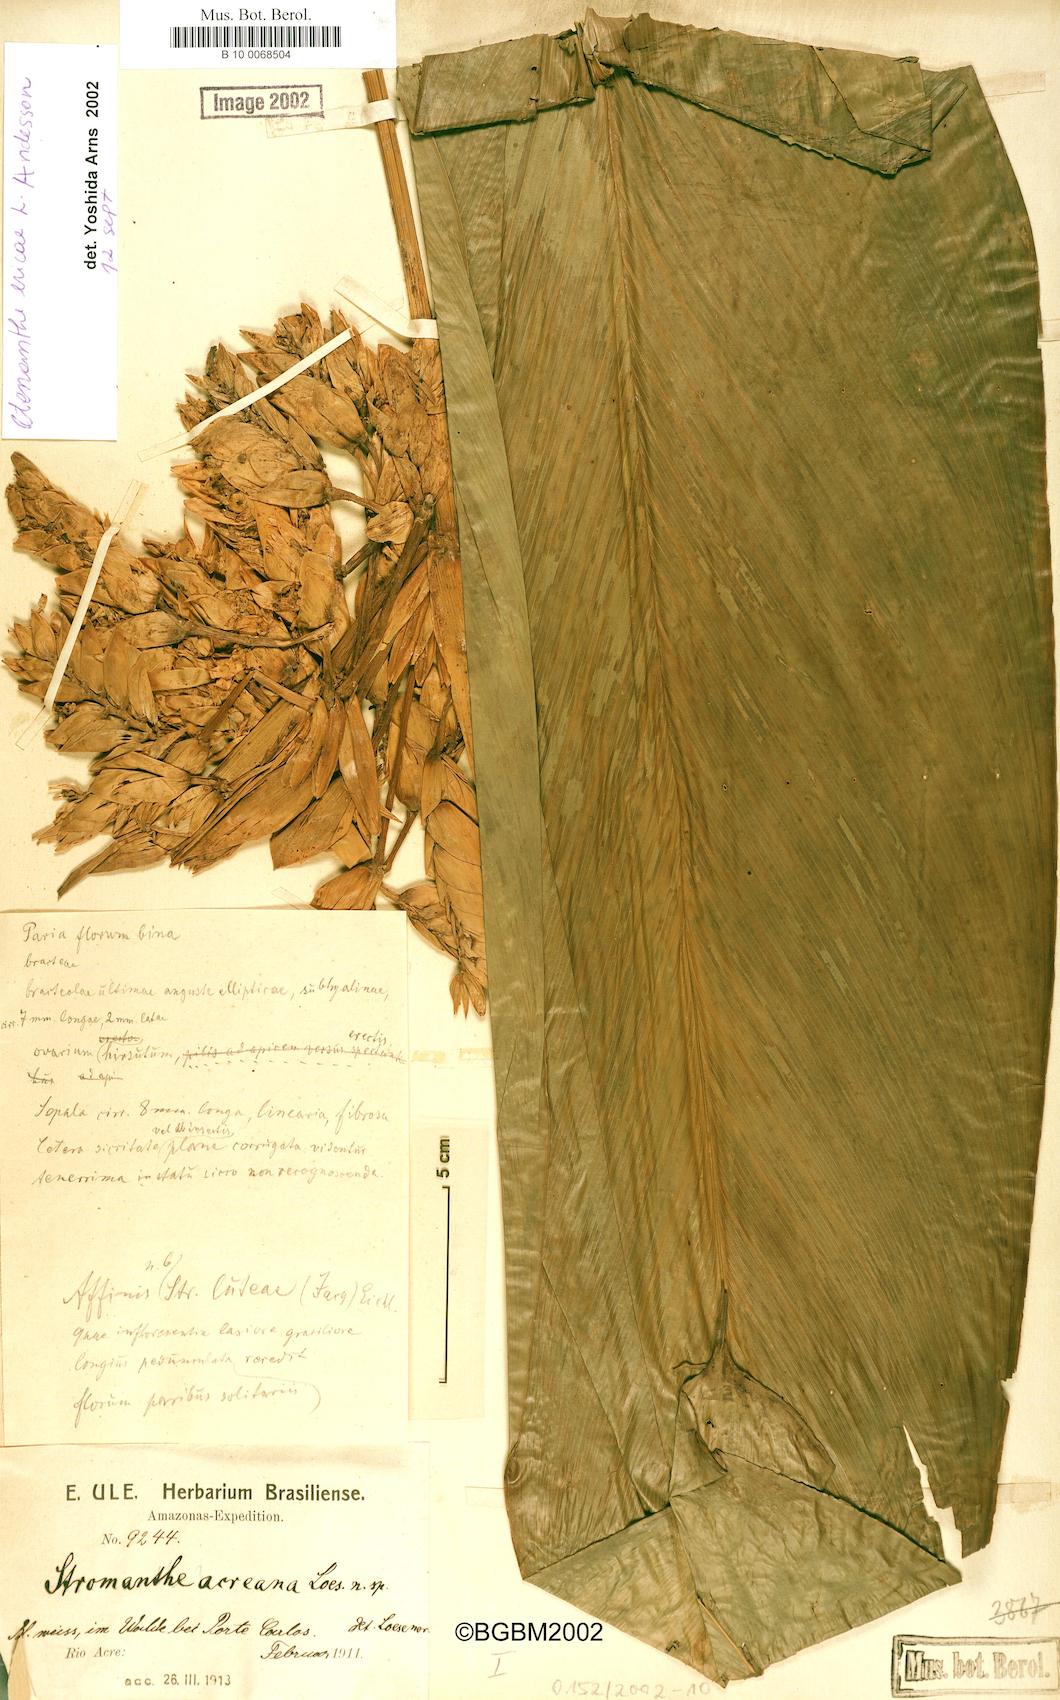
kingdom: Plantae
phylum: Tracheophyta
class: Liliopsida
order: Zingiberales
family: Marantaceae
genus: Ctenanthe
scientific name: Ctenanthe ericae
